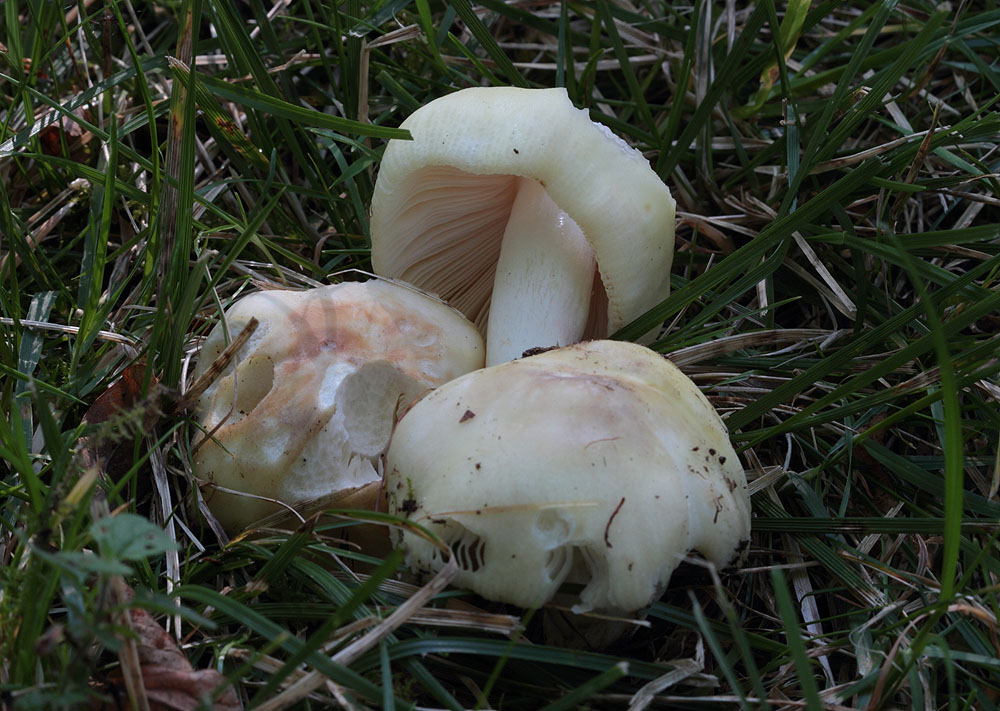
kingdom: Fungi
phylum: Basidiomycota
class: Agaricomycetes
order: Russulales
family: Russulaceae
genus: Russula
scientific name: Russula violeipes
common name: ferskengul skørhat
